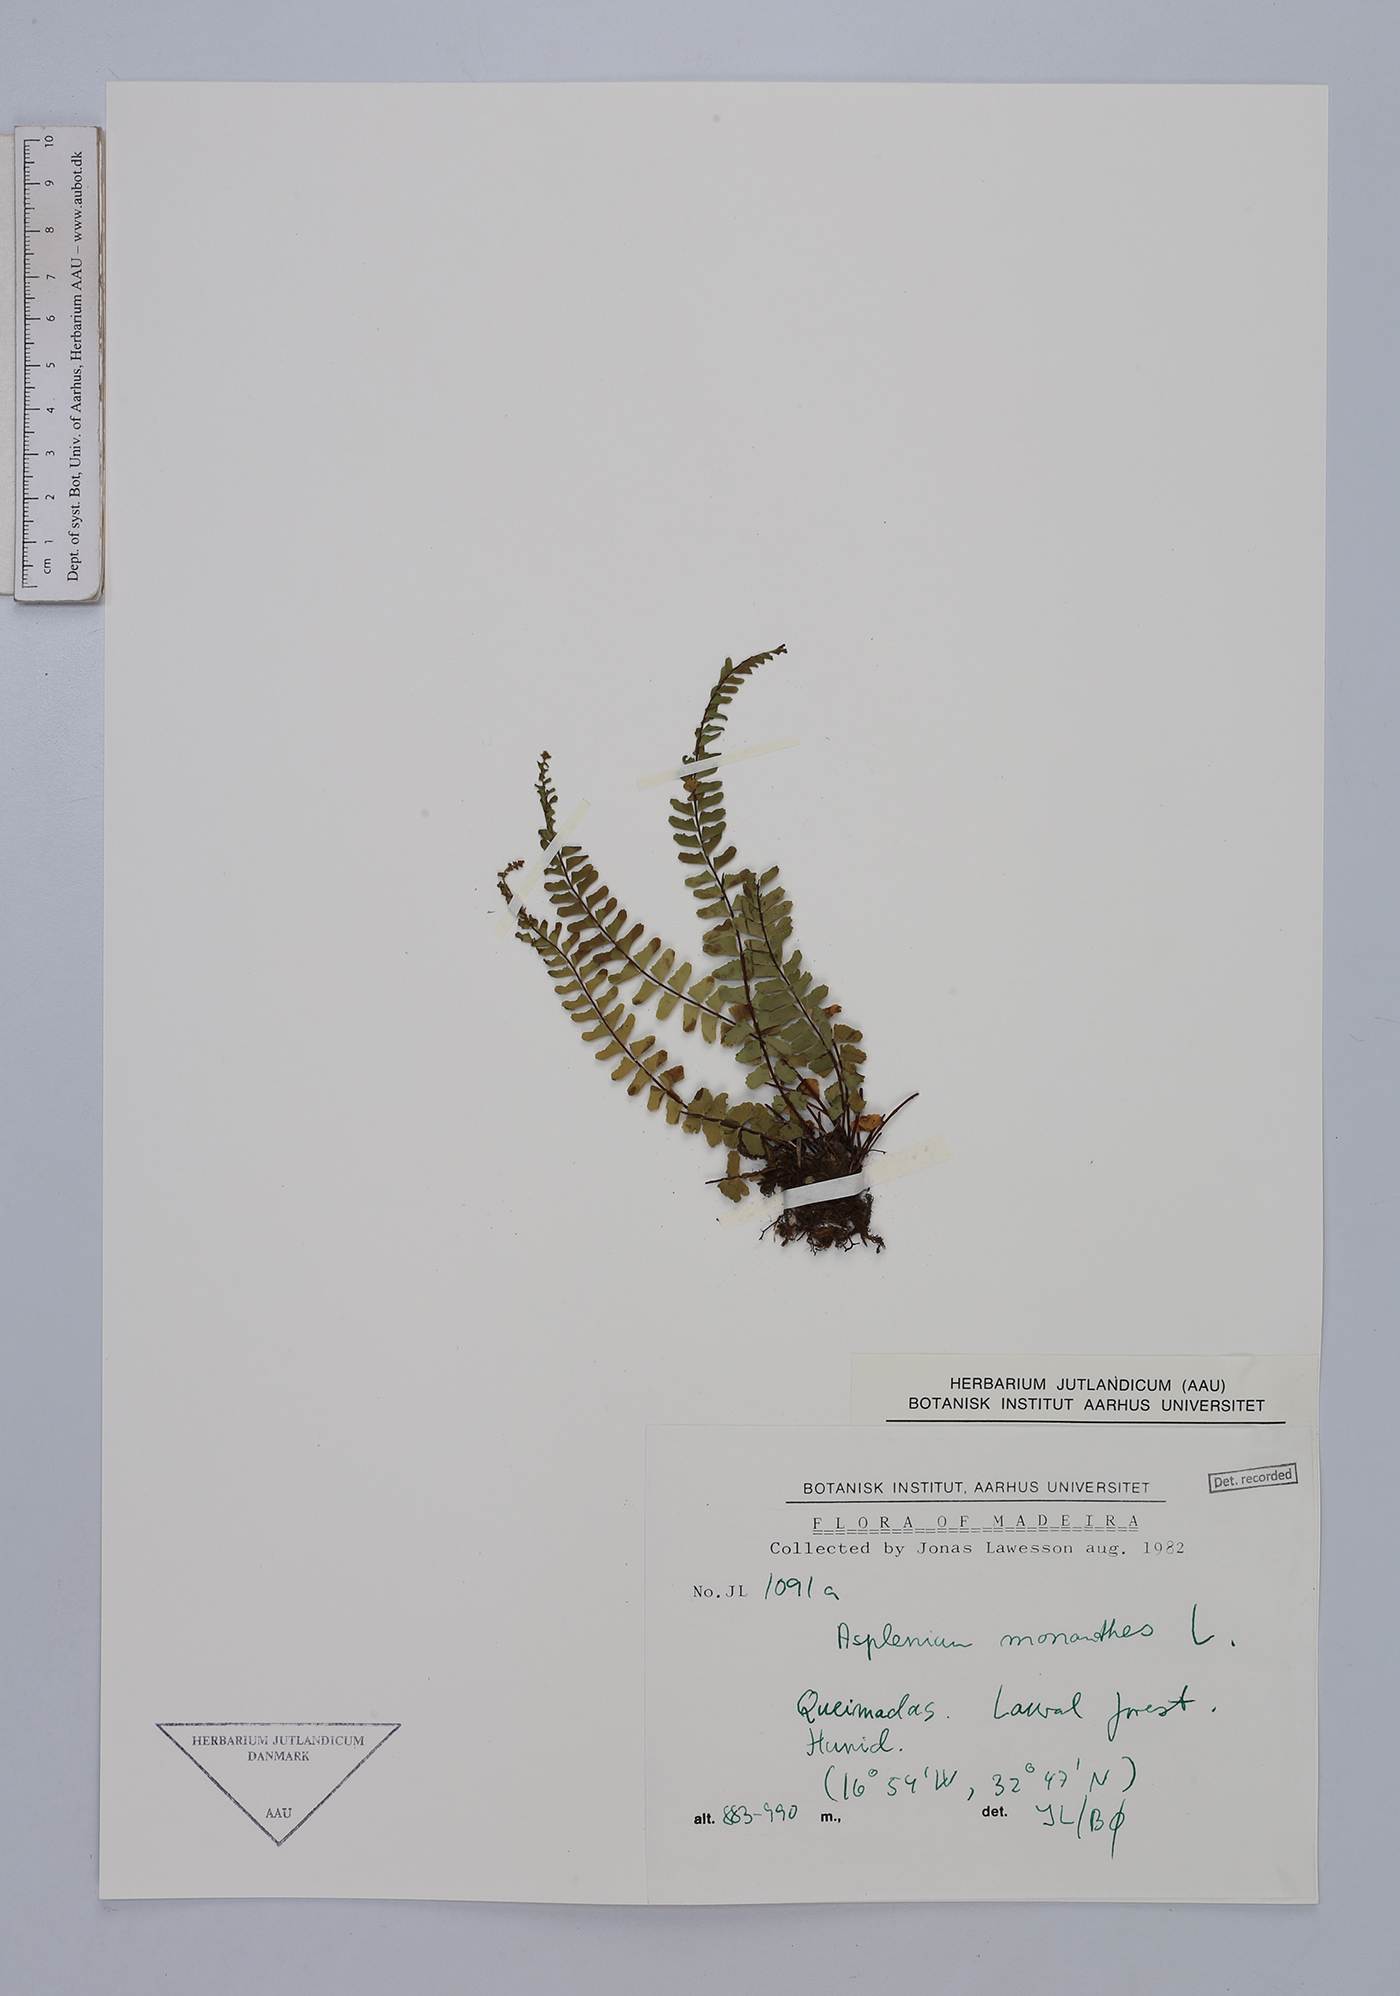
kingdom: Plantae
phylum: Tracheophyta
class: Polypodiopsida
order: Polypodiales
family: Aspleniaceae
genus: Asplenium
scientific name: Asplenium monanthes
